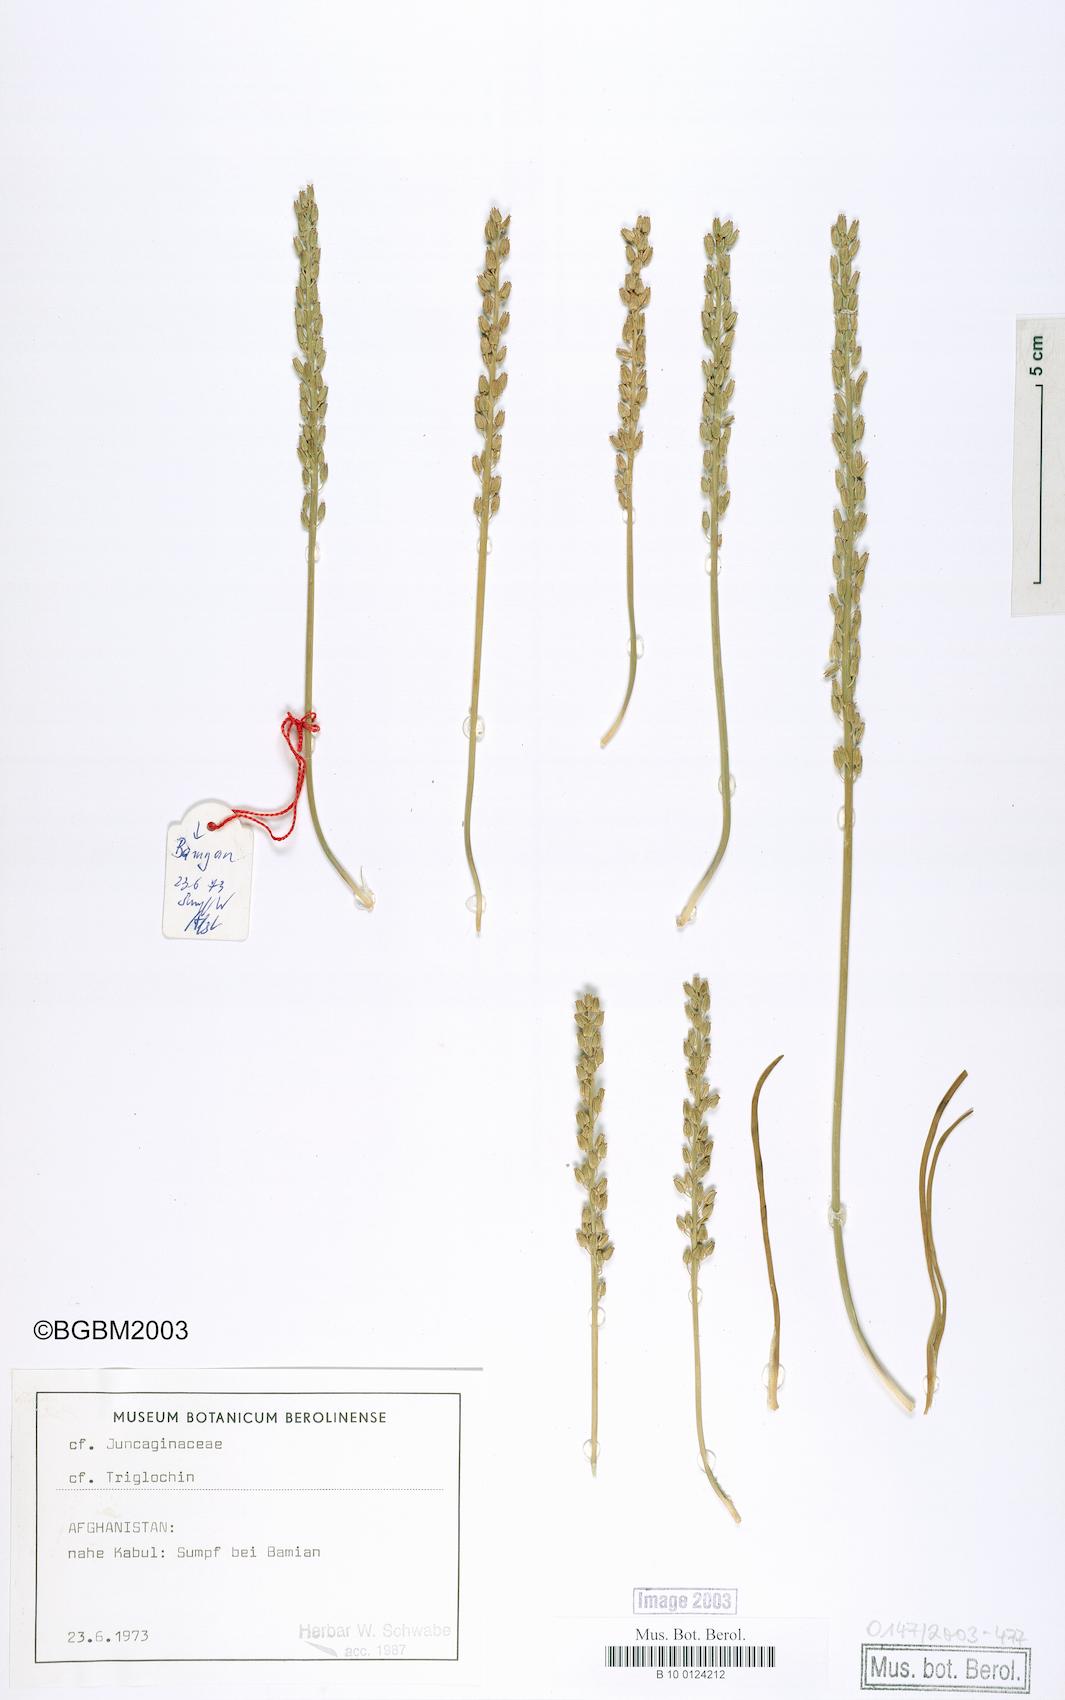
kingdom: Plantae
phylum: Tracheophyta
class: Liliopsida
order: Alismatales
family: Juncaginaceae
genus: Triglochin
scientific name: Triglochin maritima
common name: Sea arrowgrass
